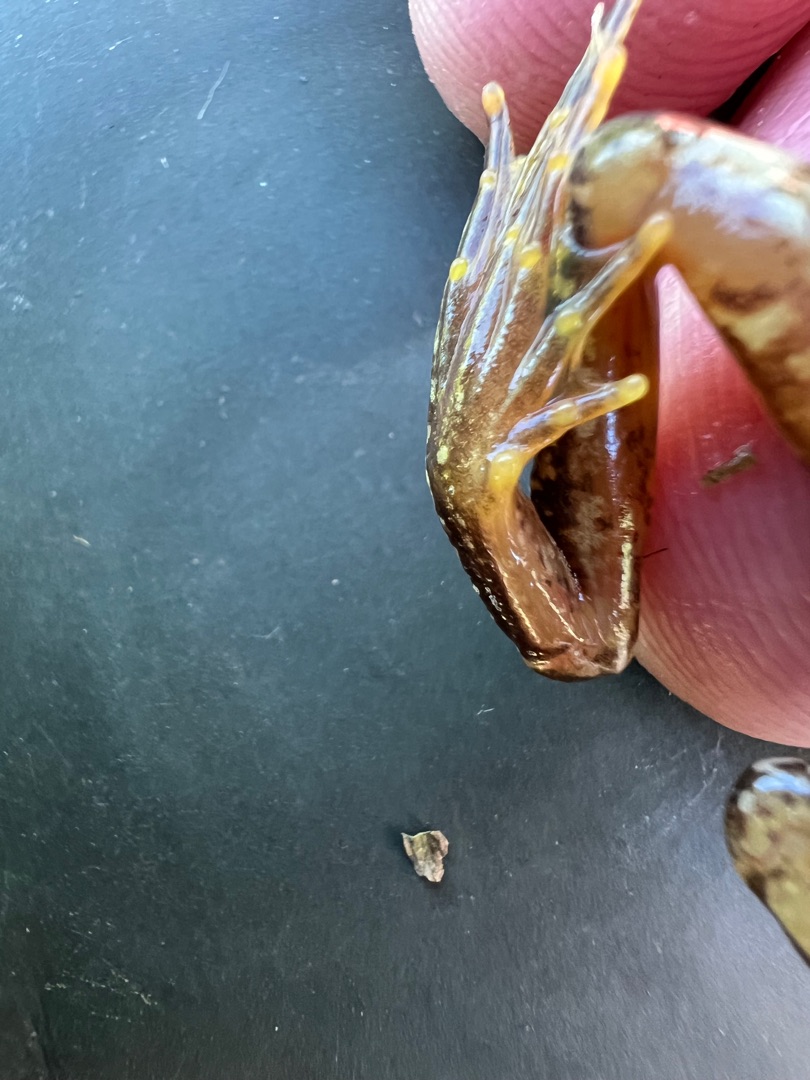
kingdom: Animalia
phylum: Chordata
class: Amphibia
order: Anura
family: Ranidae
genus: Rana
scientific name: Rana temporaria
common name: Butsnudet frø
